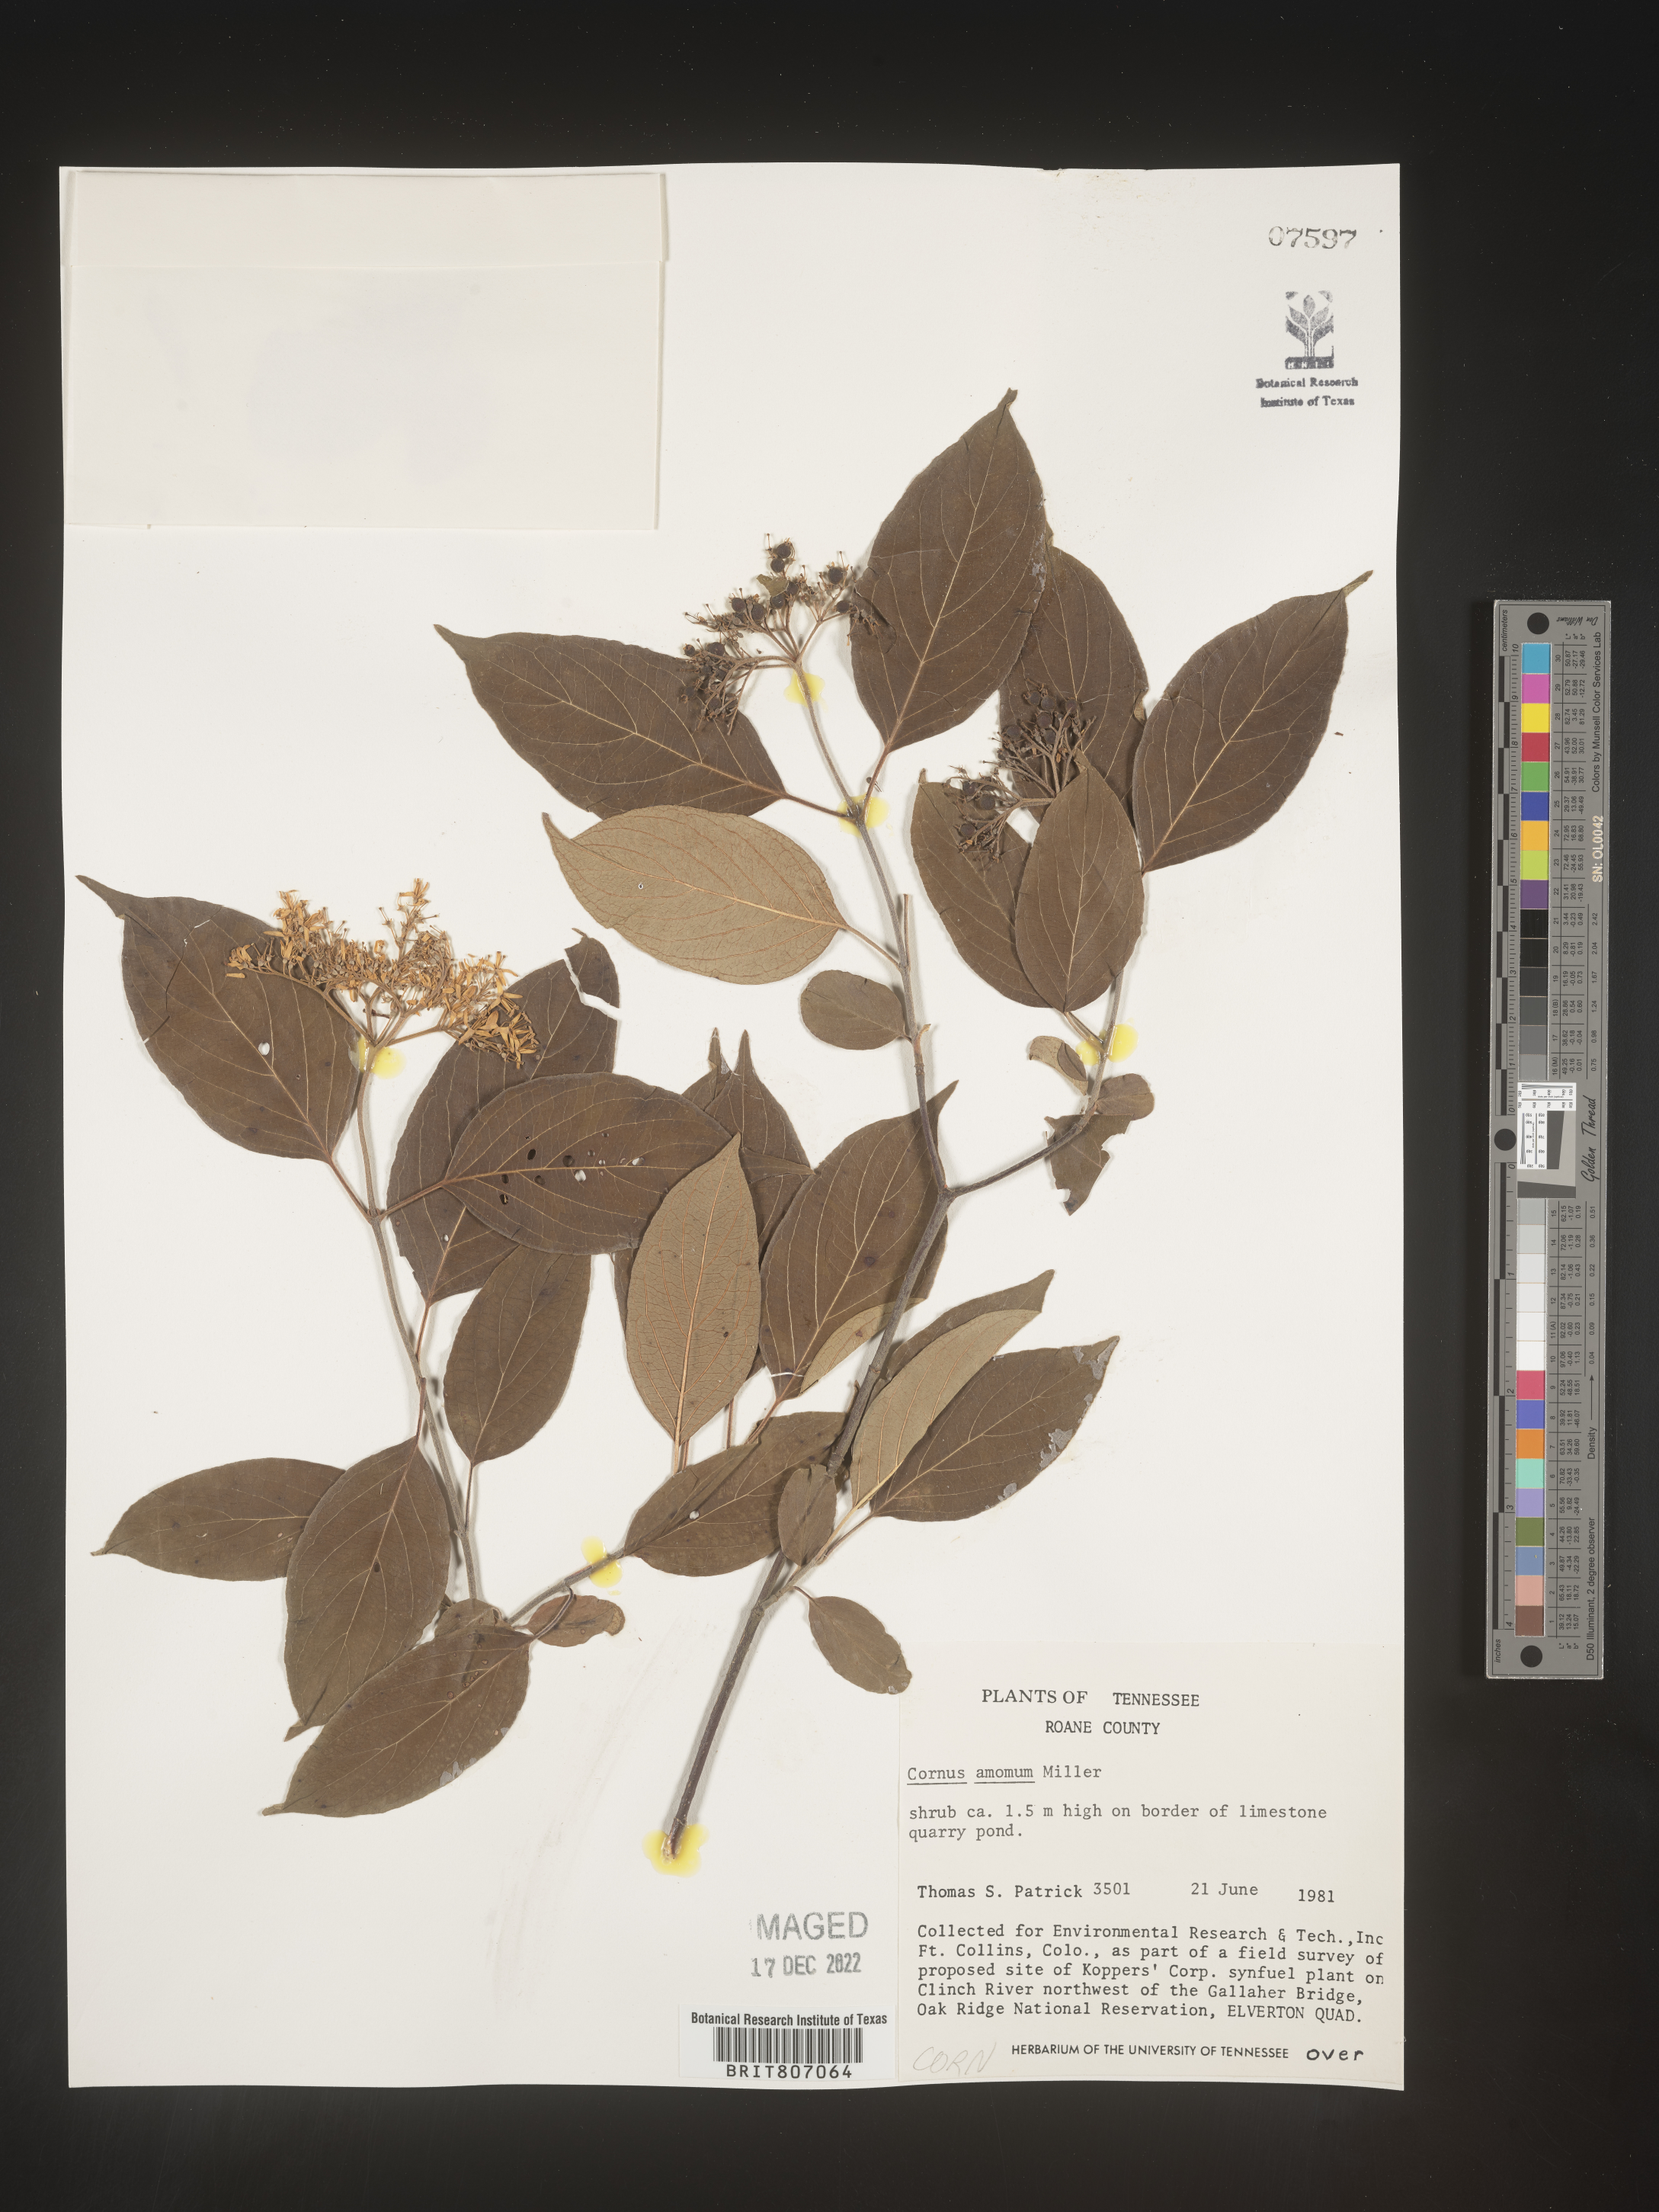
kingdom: Plantae
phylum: Tracheophyta
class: Magnoliopsida
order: Cornales
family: Cornaceae
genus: Cornus
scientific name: Cornus amomum
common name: Silky dogwood
